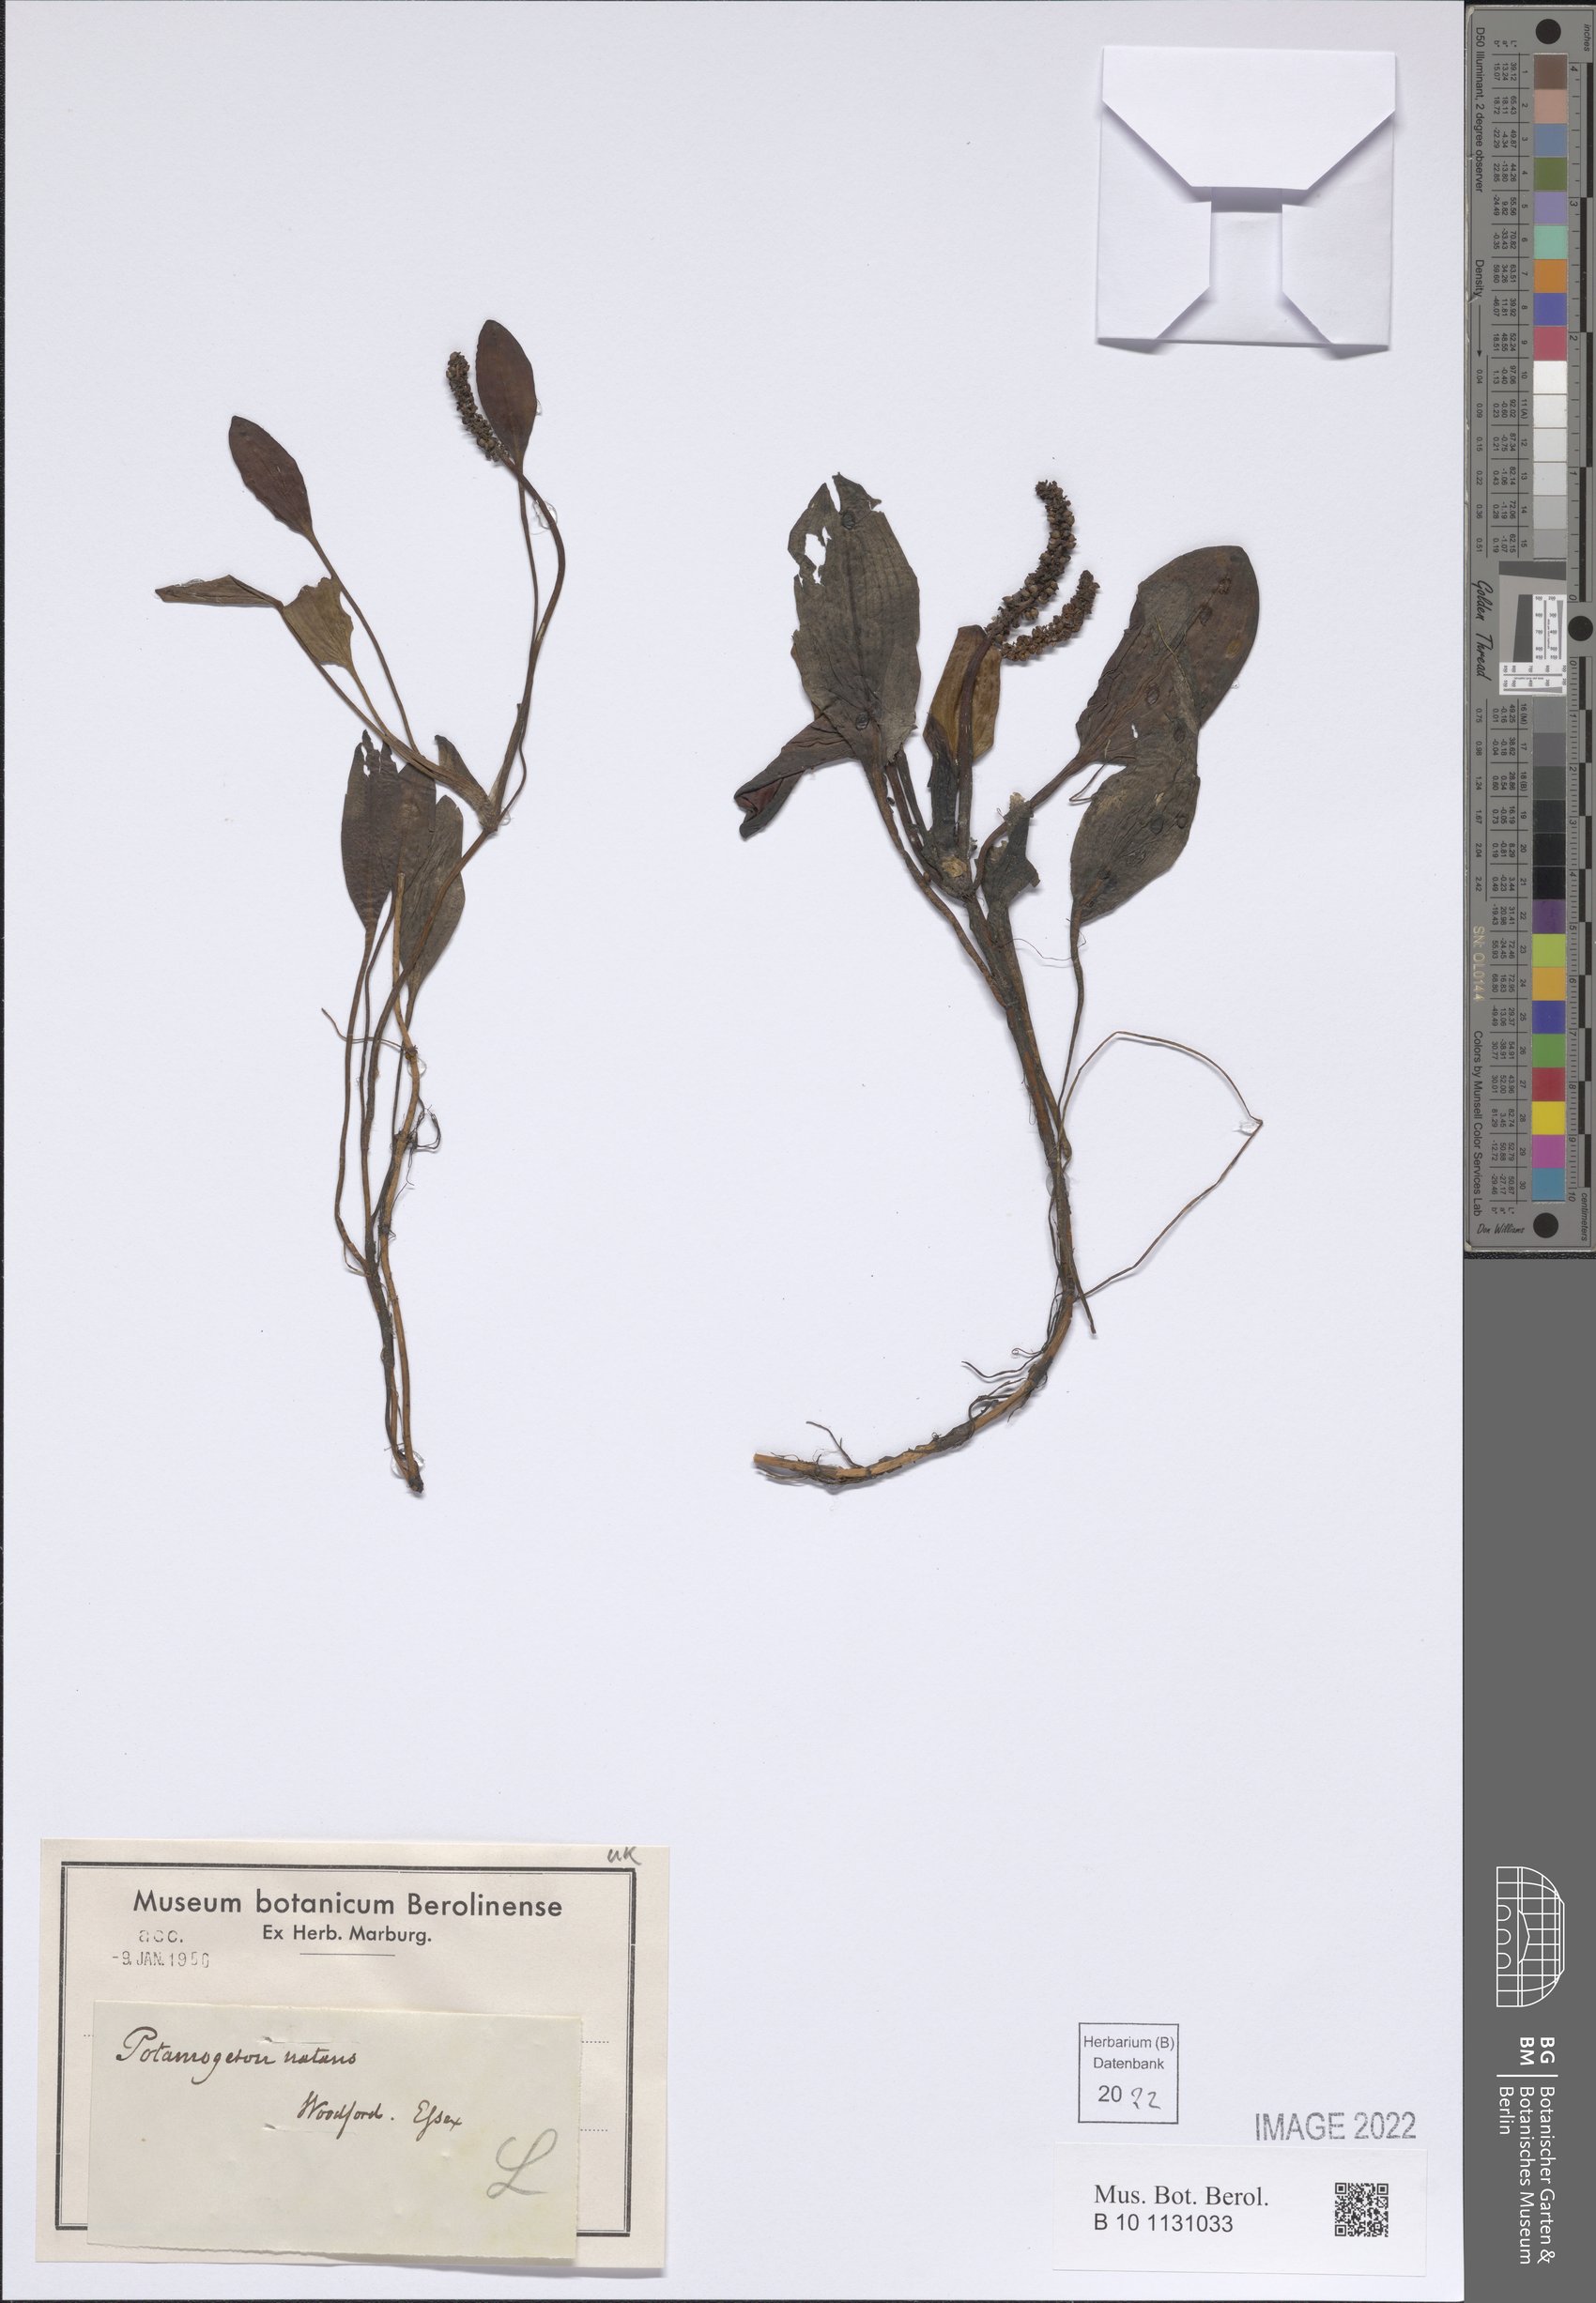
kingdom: Plantae
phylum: Tracheophyta
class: Liliopsida
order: Alismatales
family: Potamogetonaceae
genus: Potamogeton
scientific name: Potamogeton natans
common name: Broad-leaved pondweed
